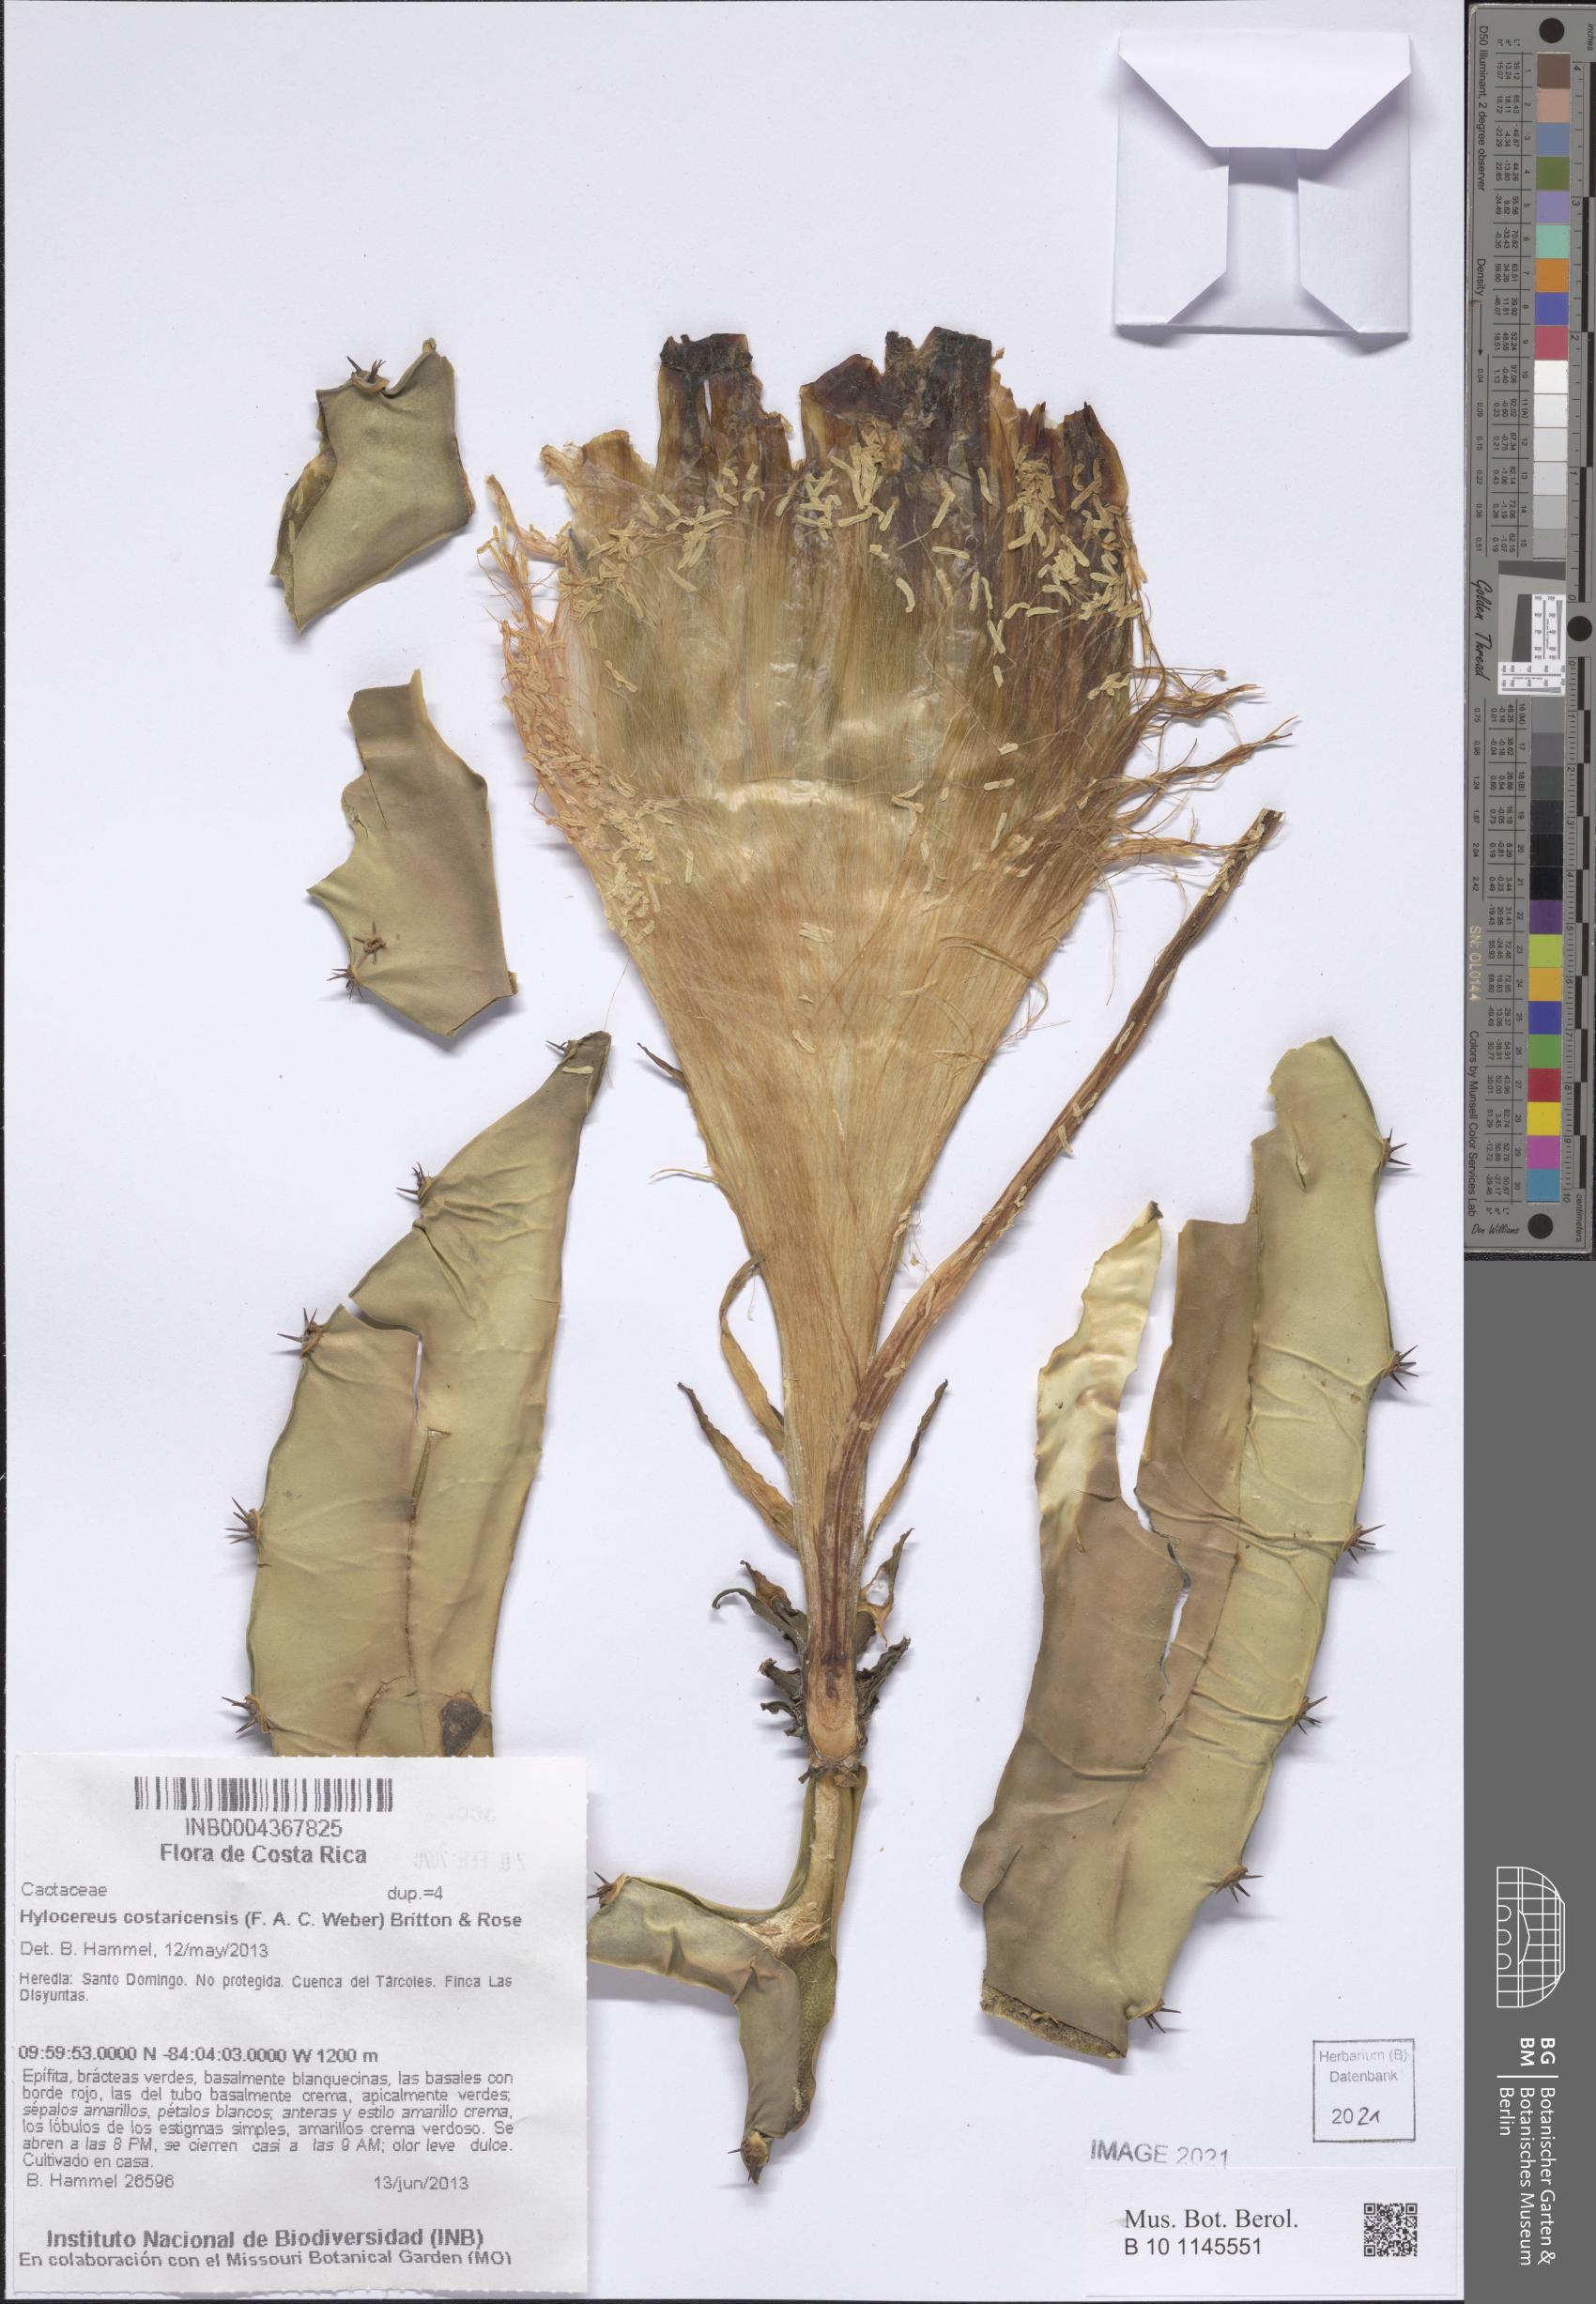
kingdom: Plantae
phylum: Tracheophyta
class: Magnoliopsida
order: Caryophyllales
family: Cactaceae
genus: Selenicereus
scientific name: Selenicereus costaricensis
